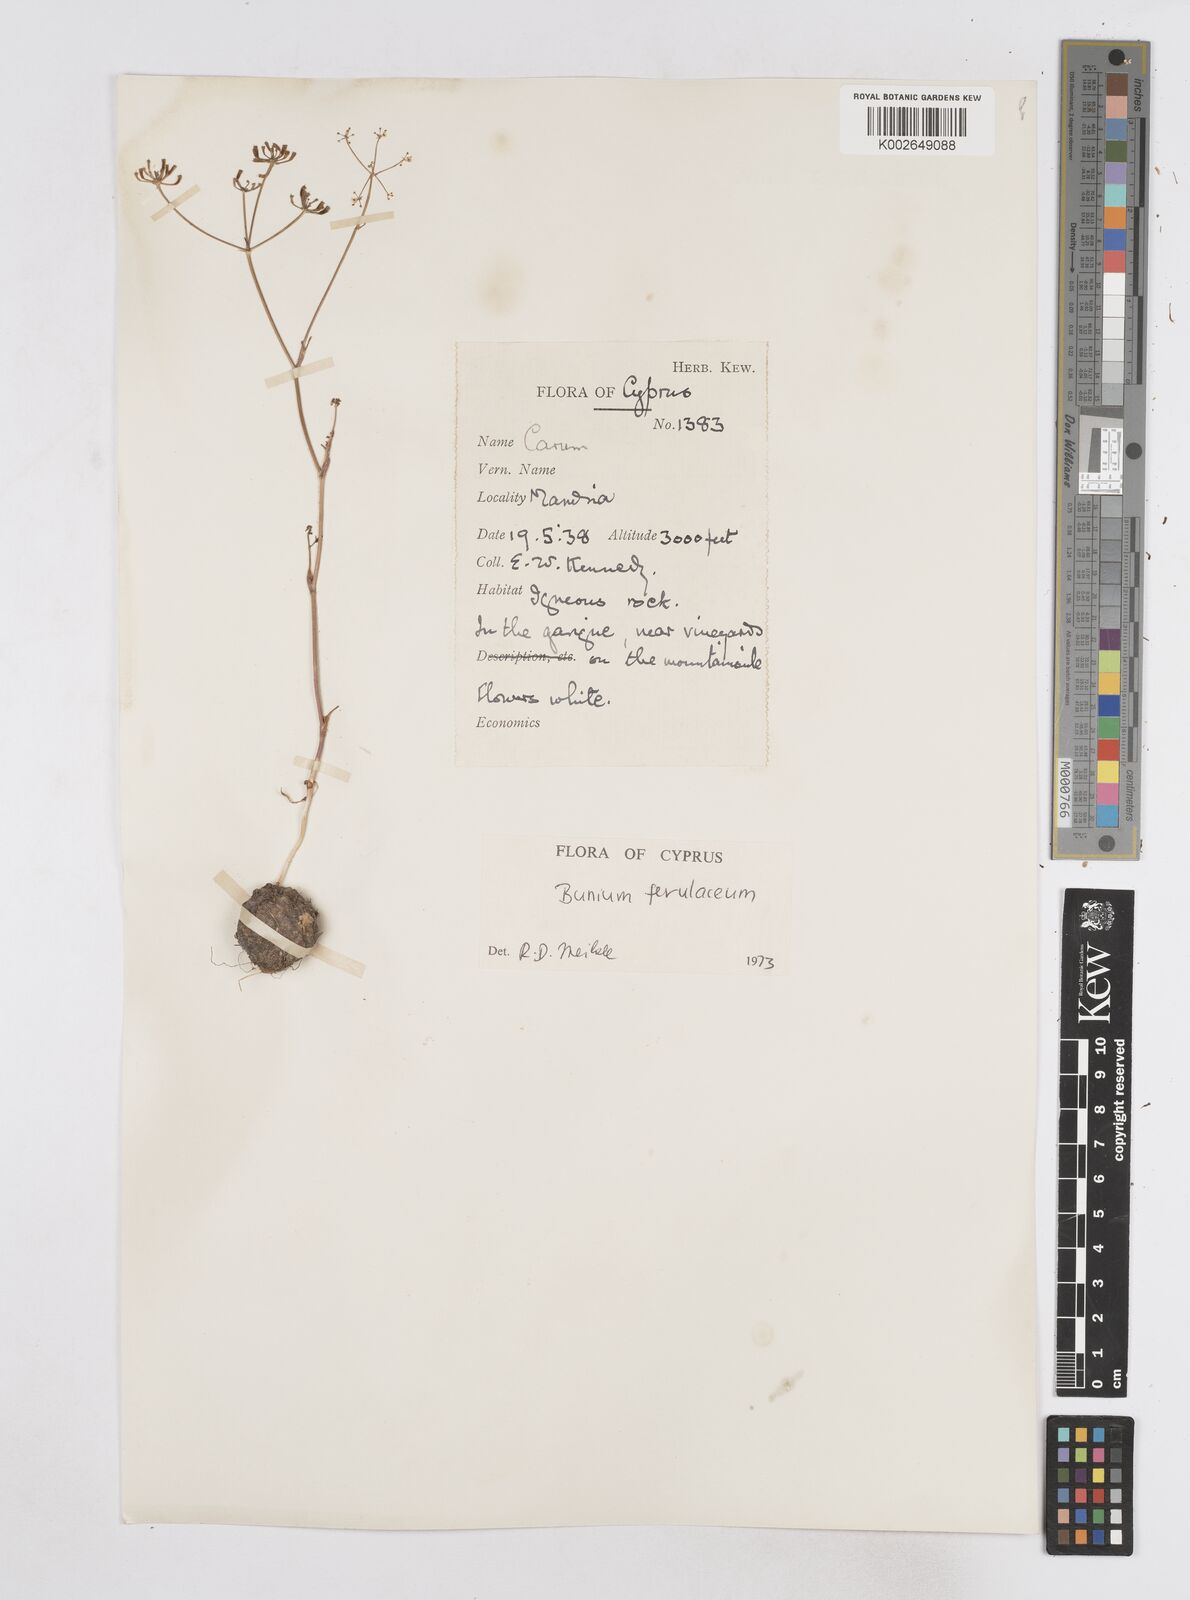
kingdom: Plantae
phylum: Tracheophyta
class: Magnoliopsida
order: Apiales
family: Apiaceae
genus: Bunium
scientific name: Bunium ferulaceum
